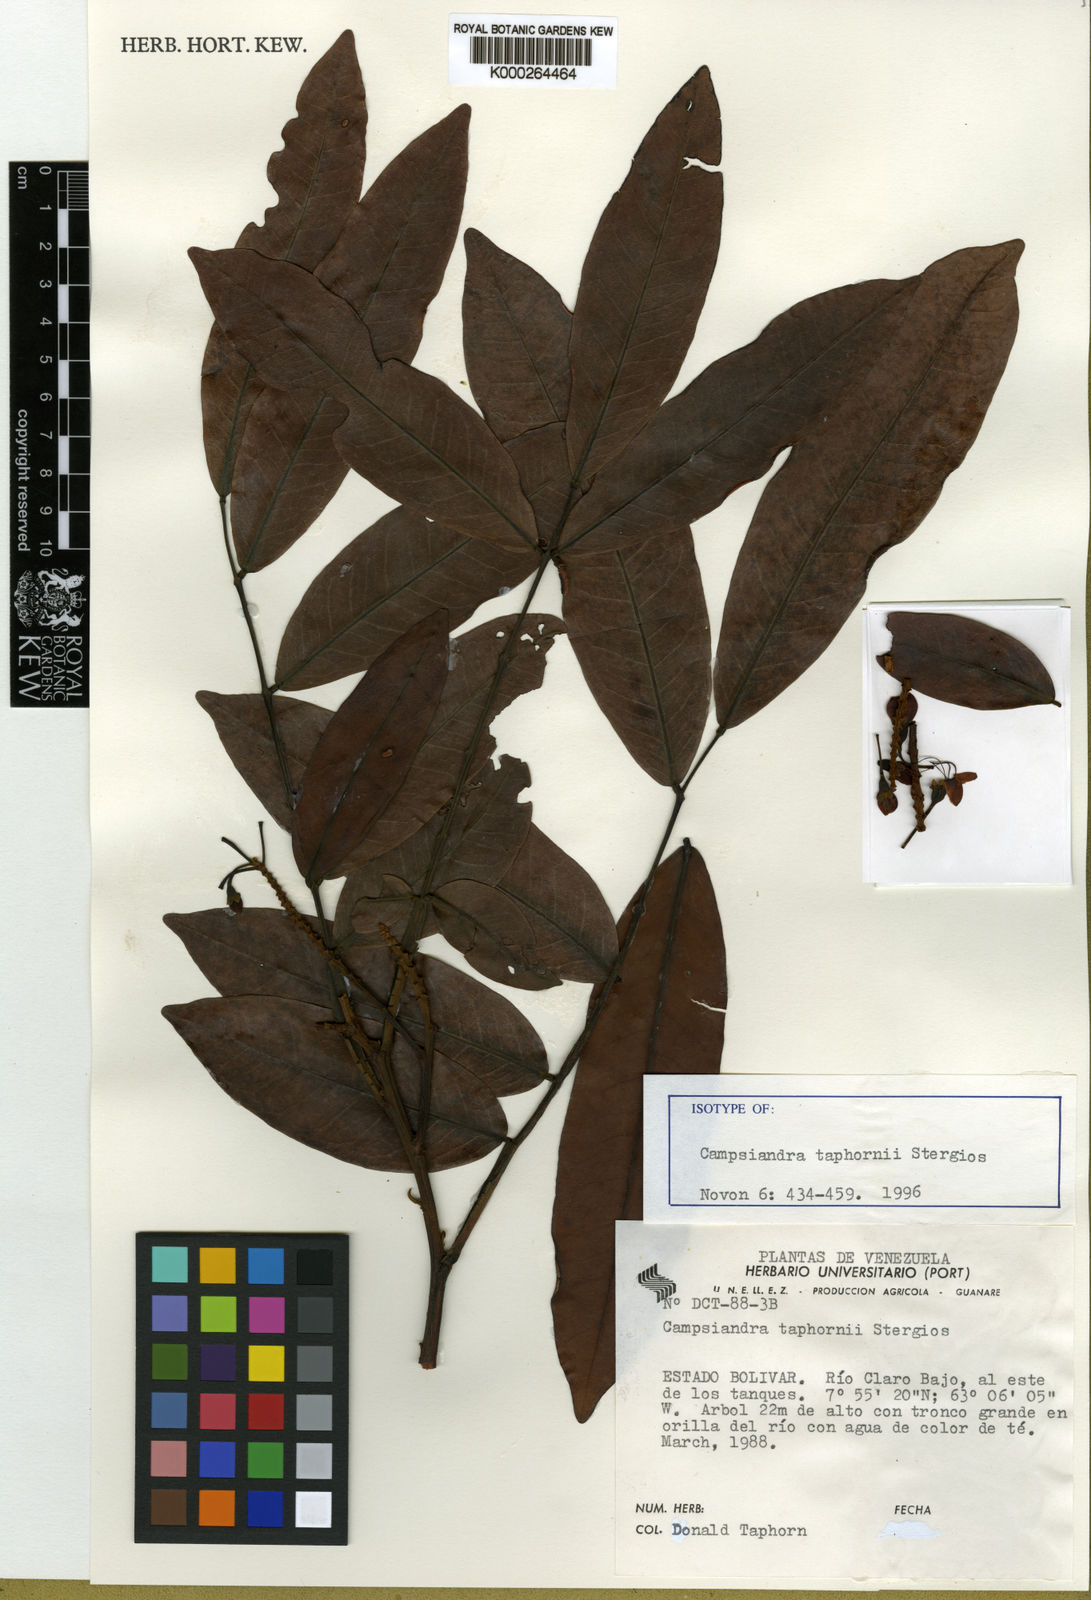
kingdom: Plantae
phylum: Tracheophyta
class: Magnoliopsida
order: Fabales
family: Fabaceae
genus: Campsiandra
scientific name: Campsiandra taphornii
